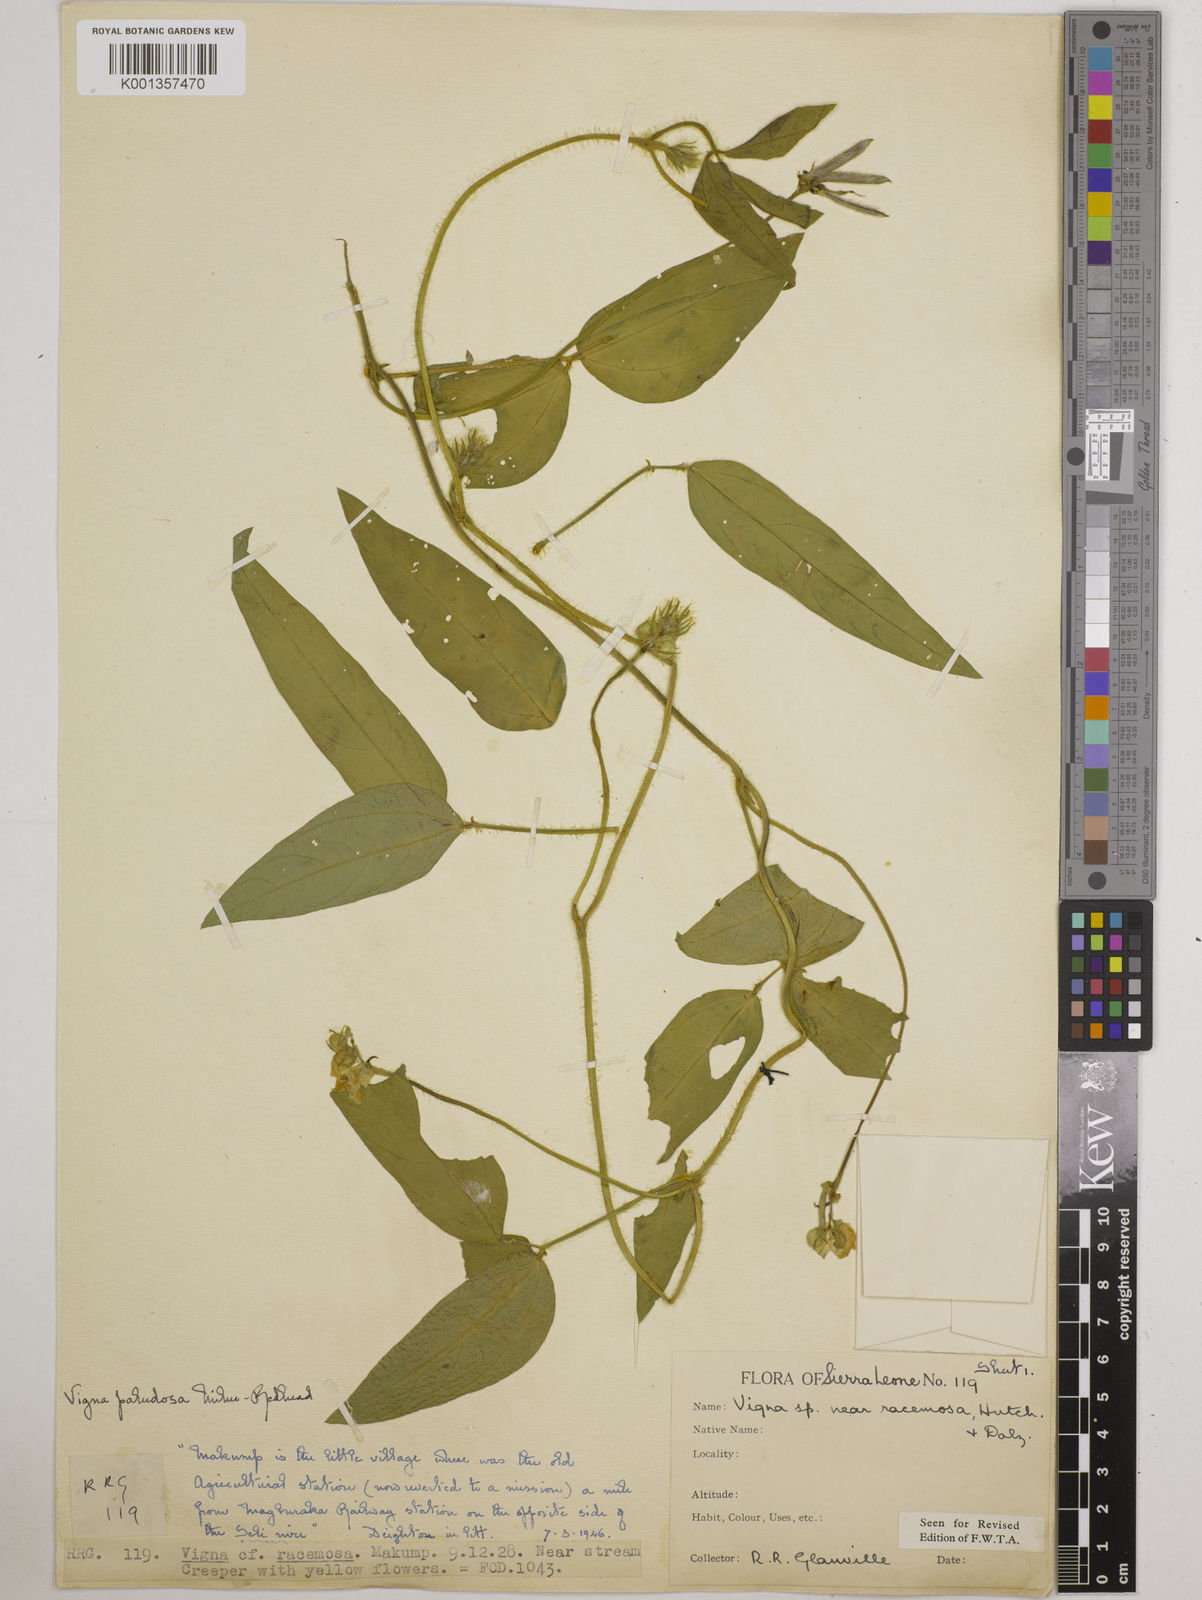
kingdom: Plantae
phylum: Tracheophyta
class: Magnoliopsida
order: Fabales
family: Fabaceae
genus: Vigna
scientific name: Vigna longifolia
